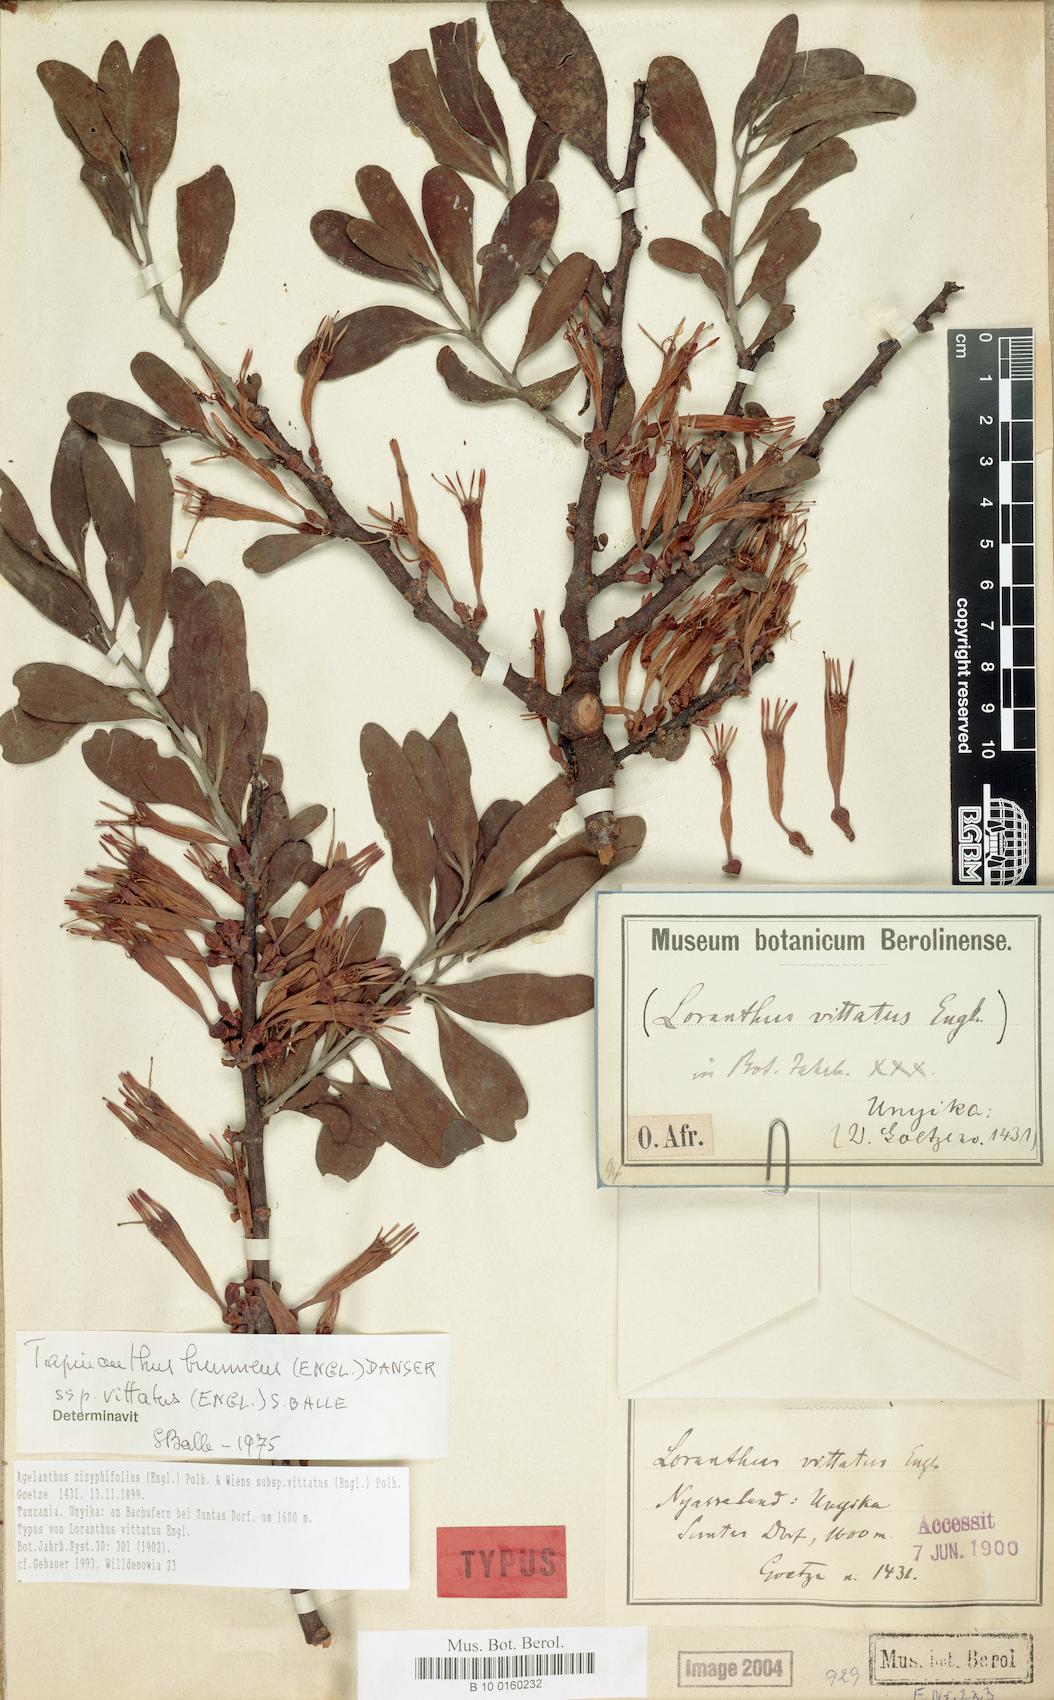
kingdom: Plantae
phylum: Tracheophyta
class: Magnoliopsida
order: Santalales
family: Loranthaceae
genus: Agelanthus
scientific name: Agelanthus zizyphifolius
